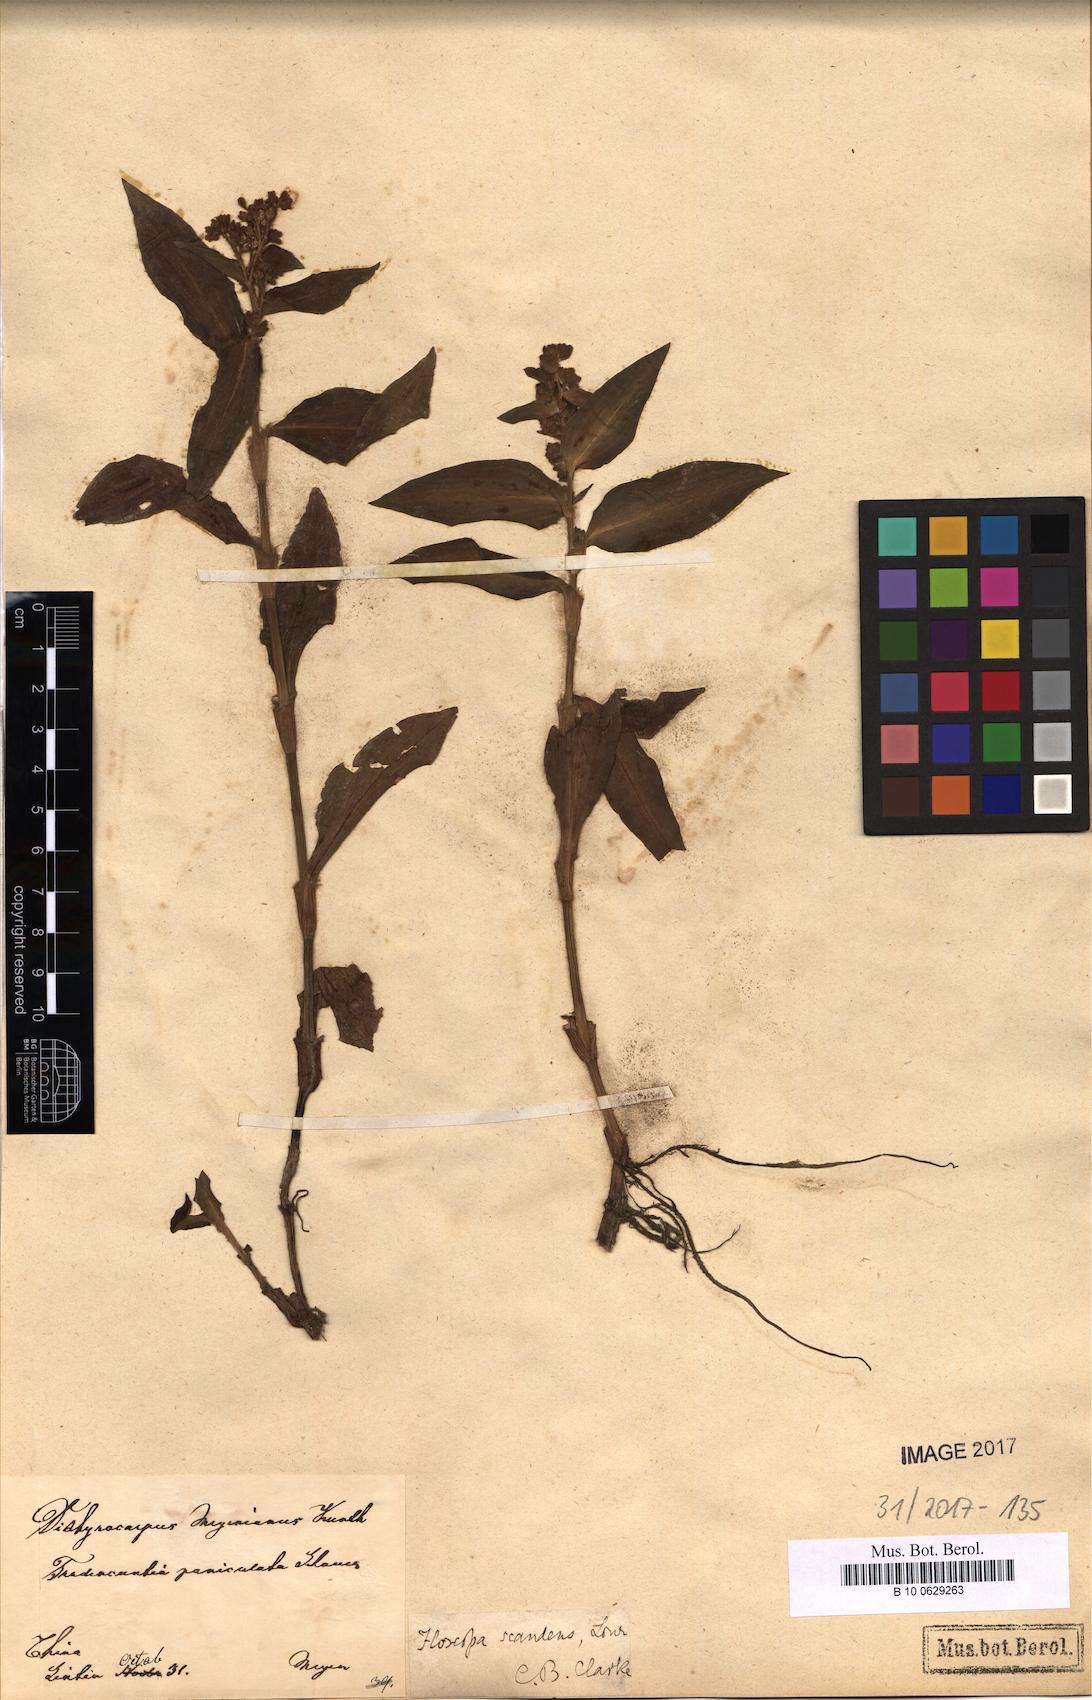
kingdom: Plantae
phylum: Tracheophyta
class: Liliopsida
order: Commelinales
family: Commelinaceae
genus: Floscopa
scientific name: Floscopa scandens
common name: Climbing flower cup
